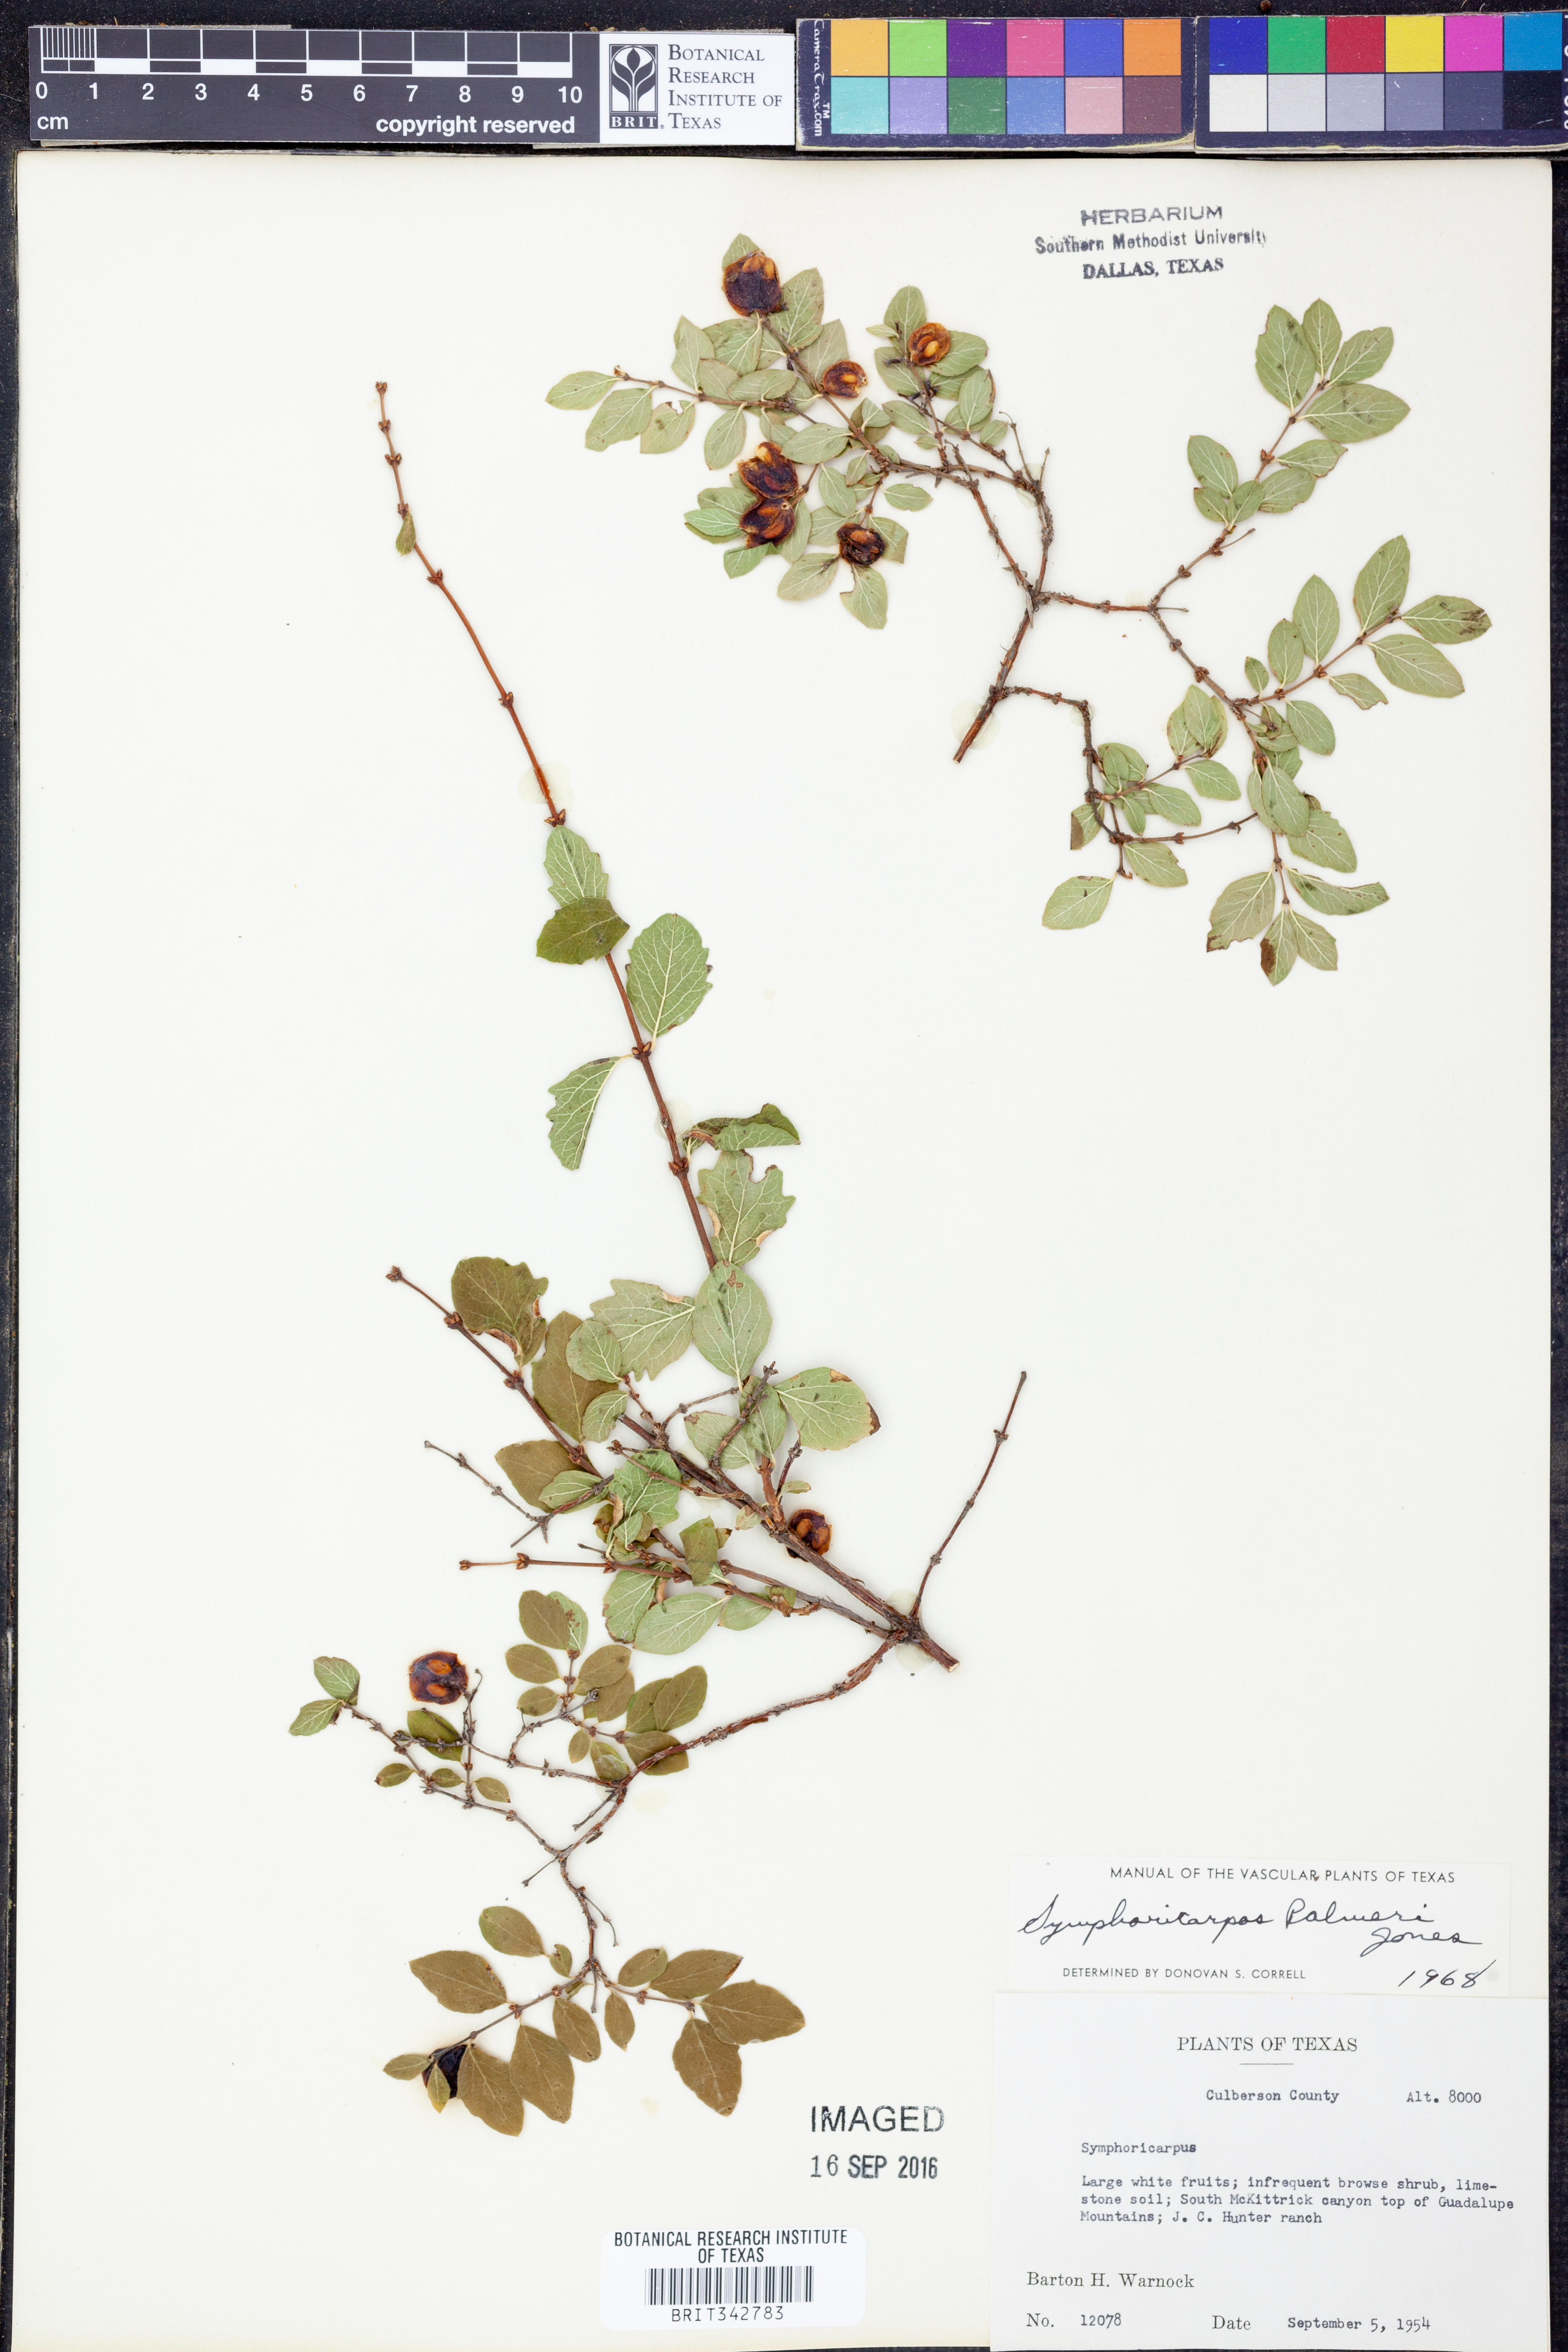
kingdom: Plantae
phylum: Tracheophyta
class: Magnoliopsida
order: Dipsacales
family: Caprifoliaceae
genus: Symphoricarpos
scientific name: Symphoricarpos palmeri
